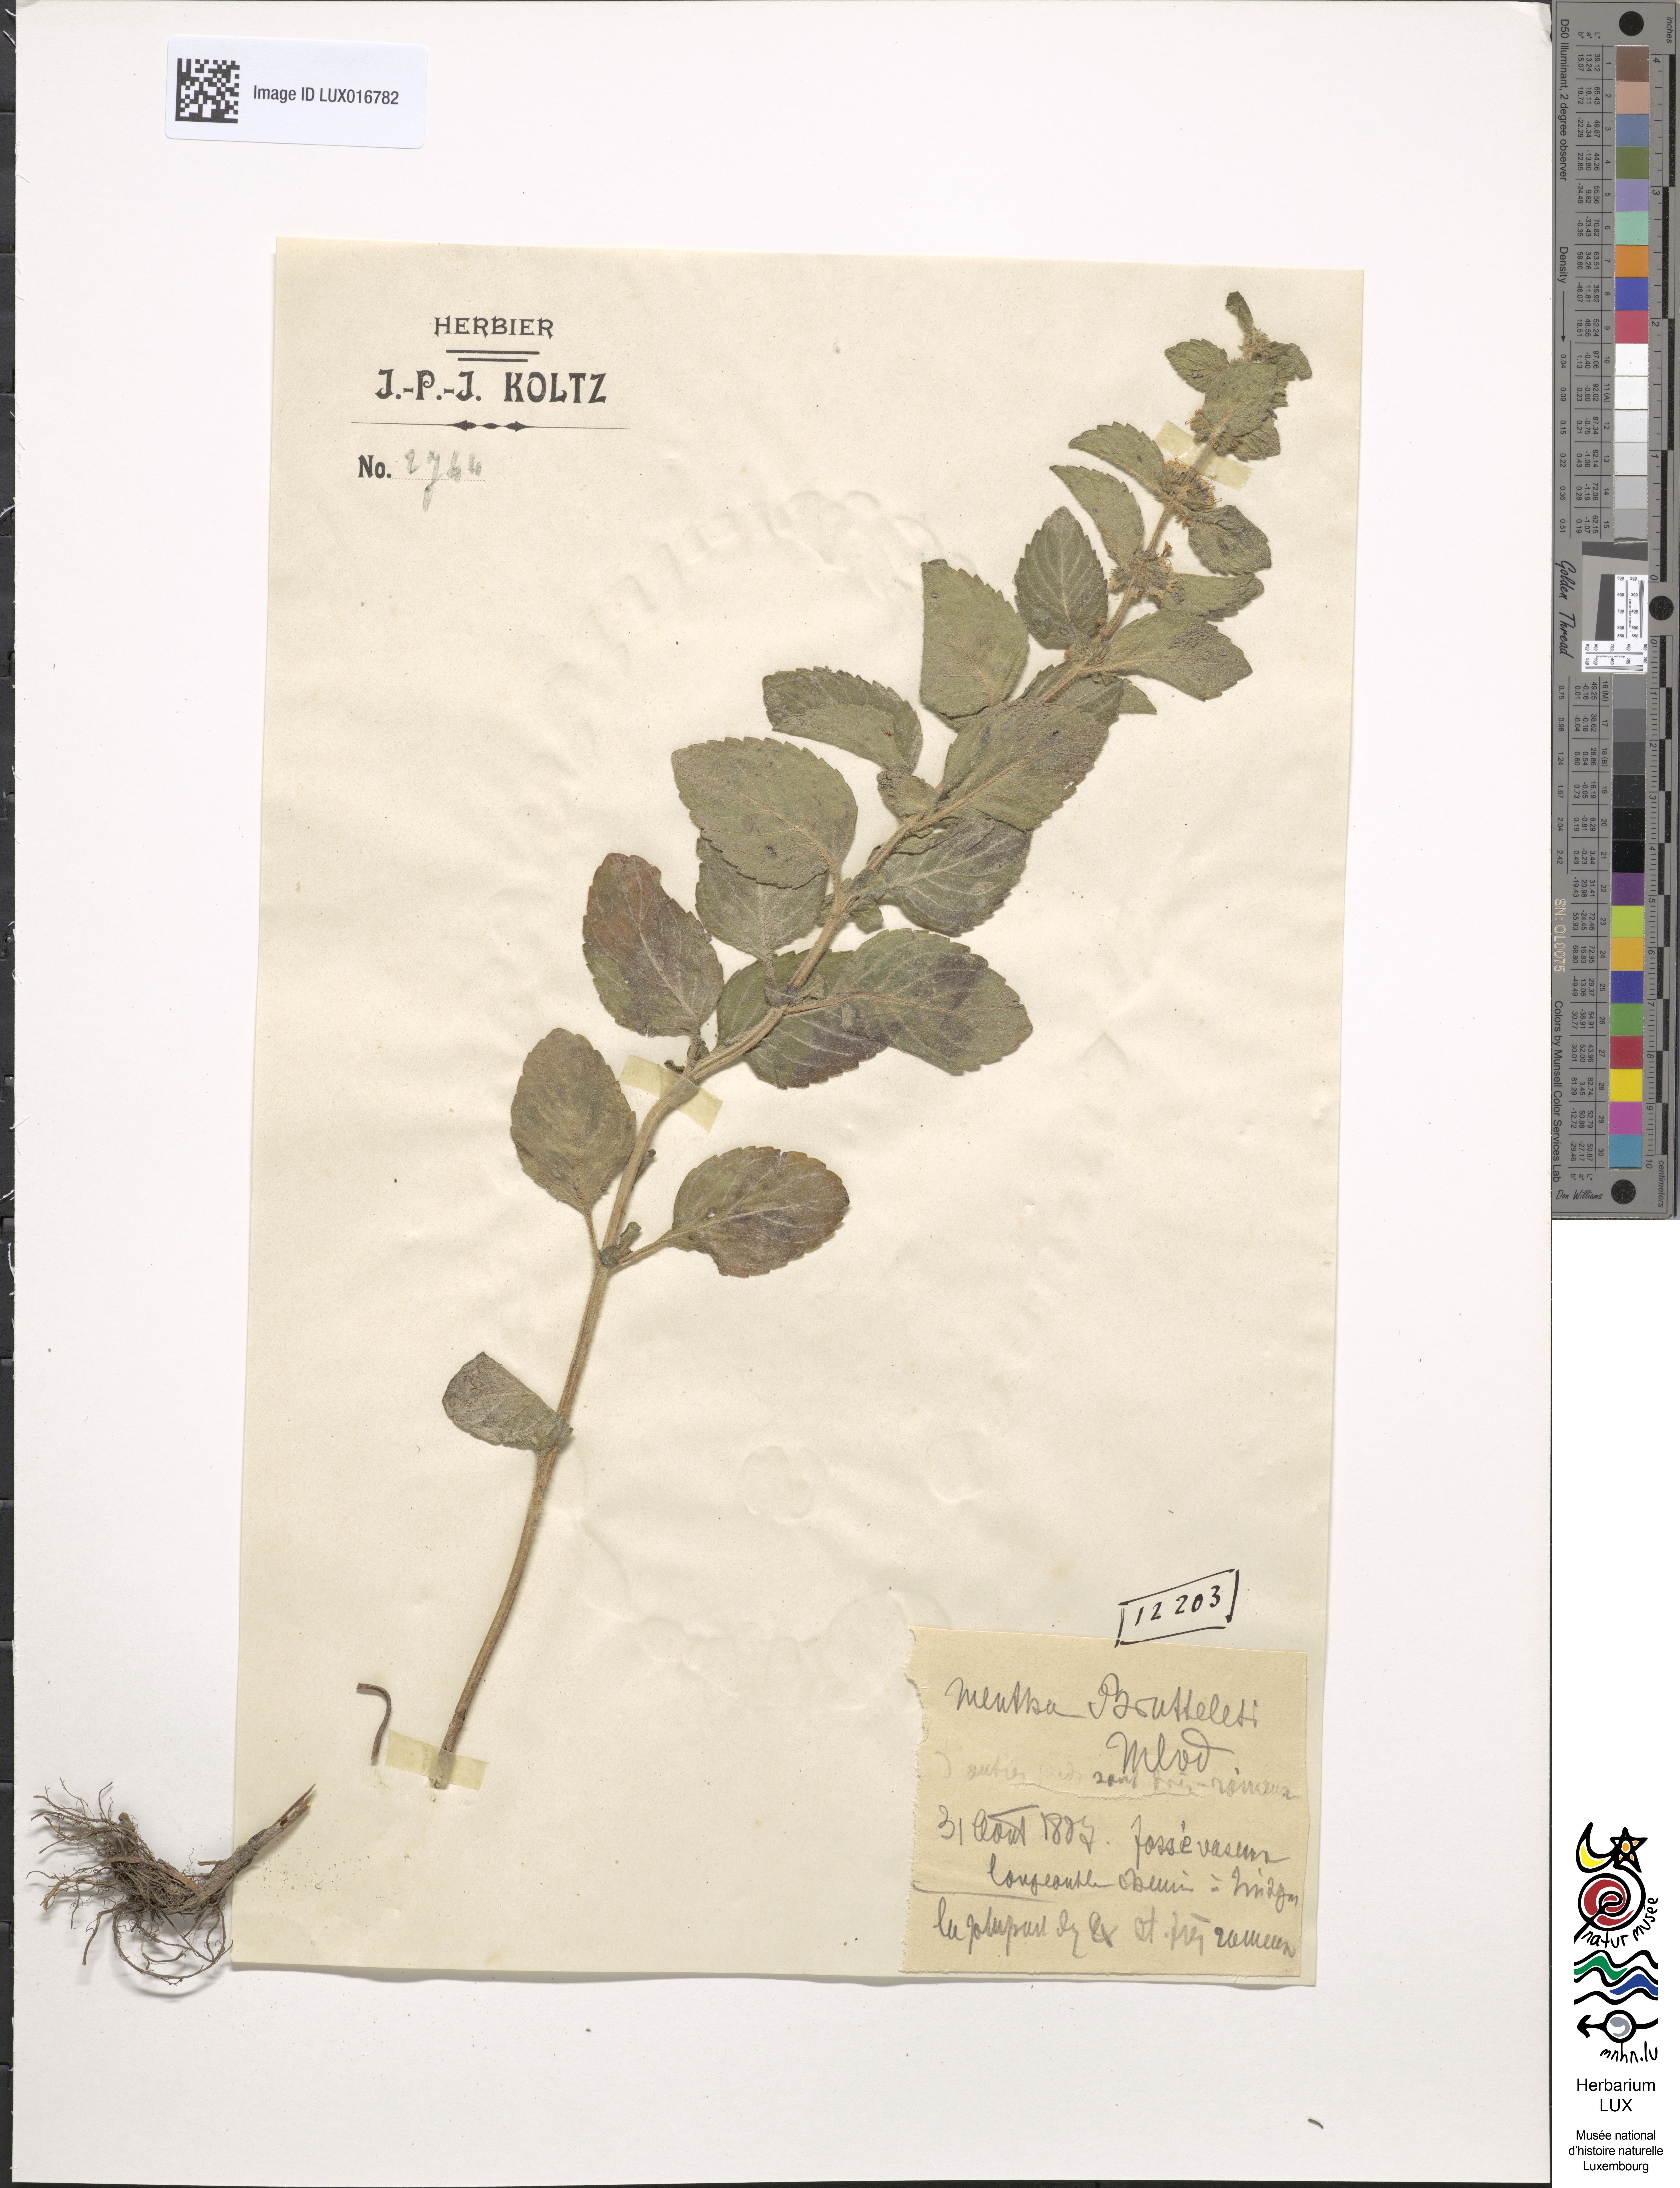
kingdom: Plantae
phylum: Tracheophyta
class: Magnoliopsida
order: Lamiales
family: Lamiaceae
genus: Mentha
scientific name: Mentha carinthiaca
